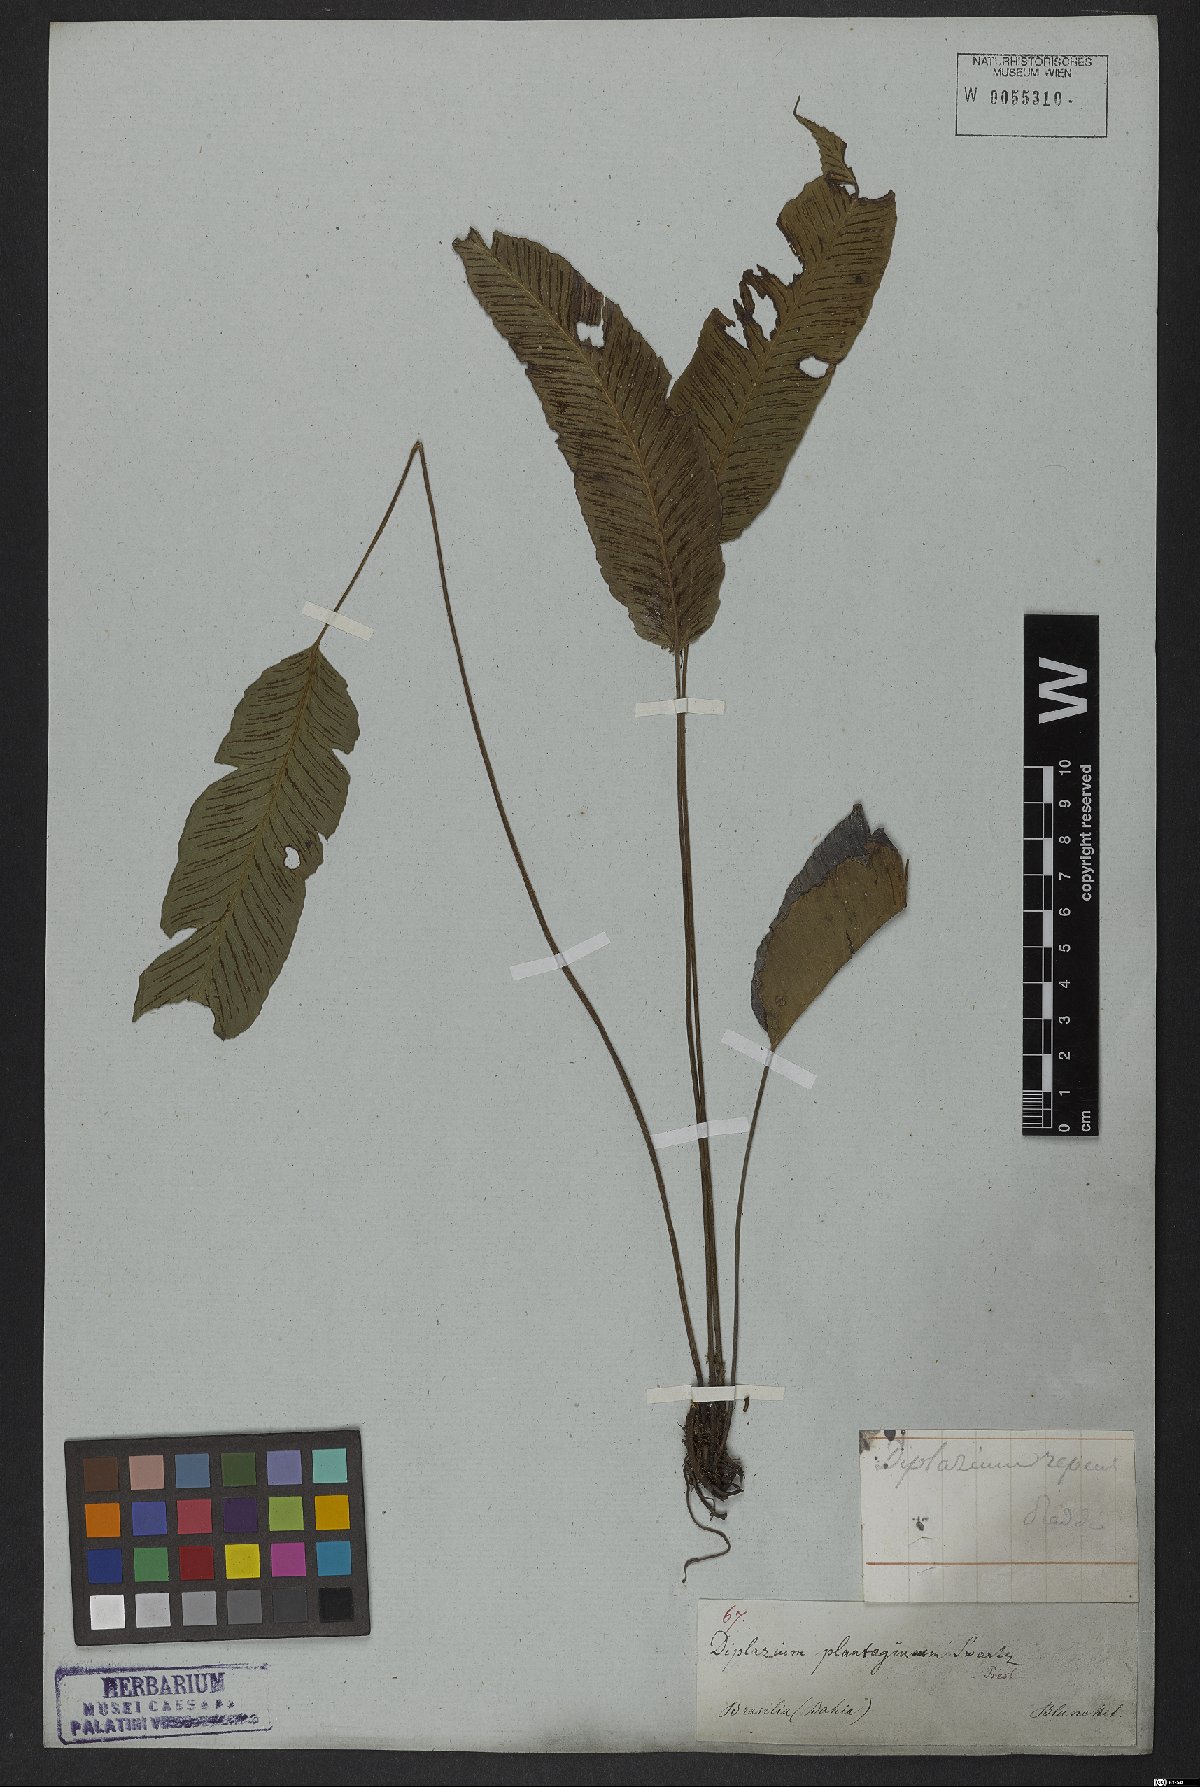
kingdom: Plantae
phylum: Tracheophyta
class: Polypodiopsida
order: Polypodiales
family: Athyriaceae
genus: Diplazium
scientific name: Diplazium plantaginifolium
